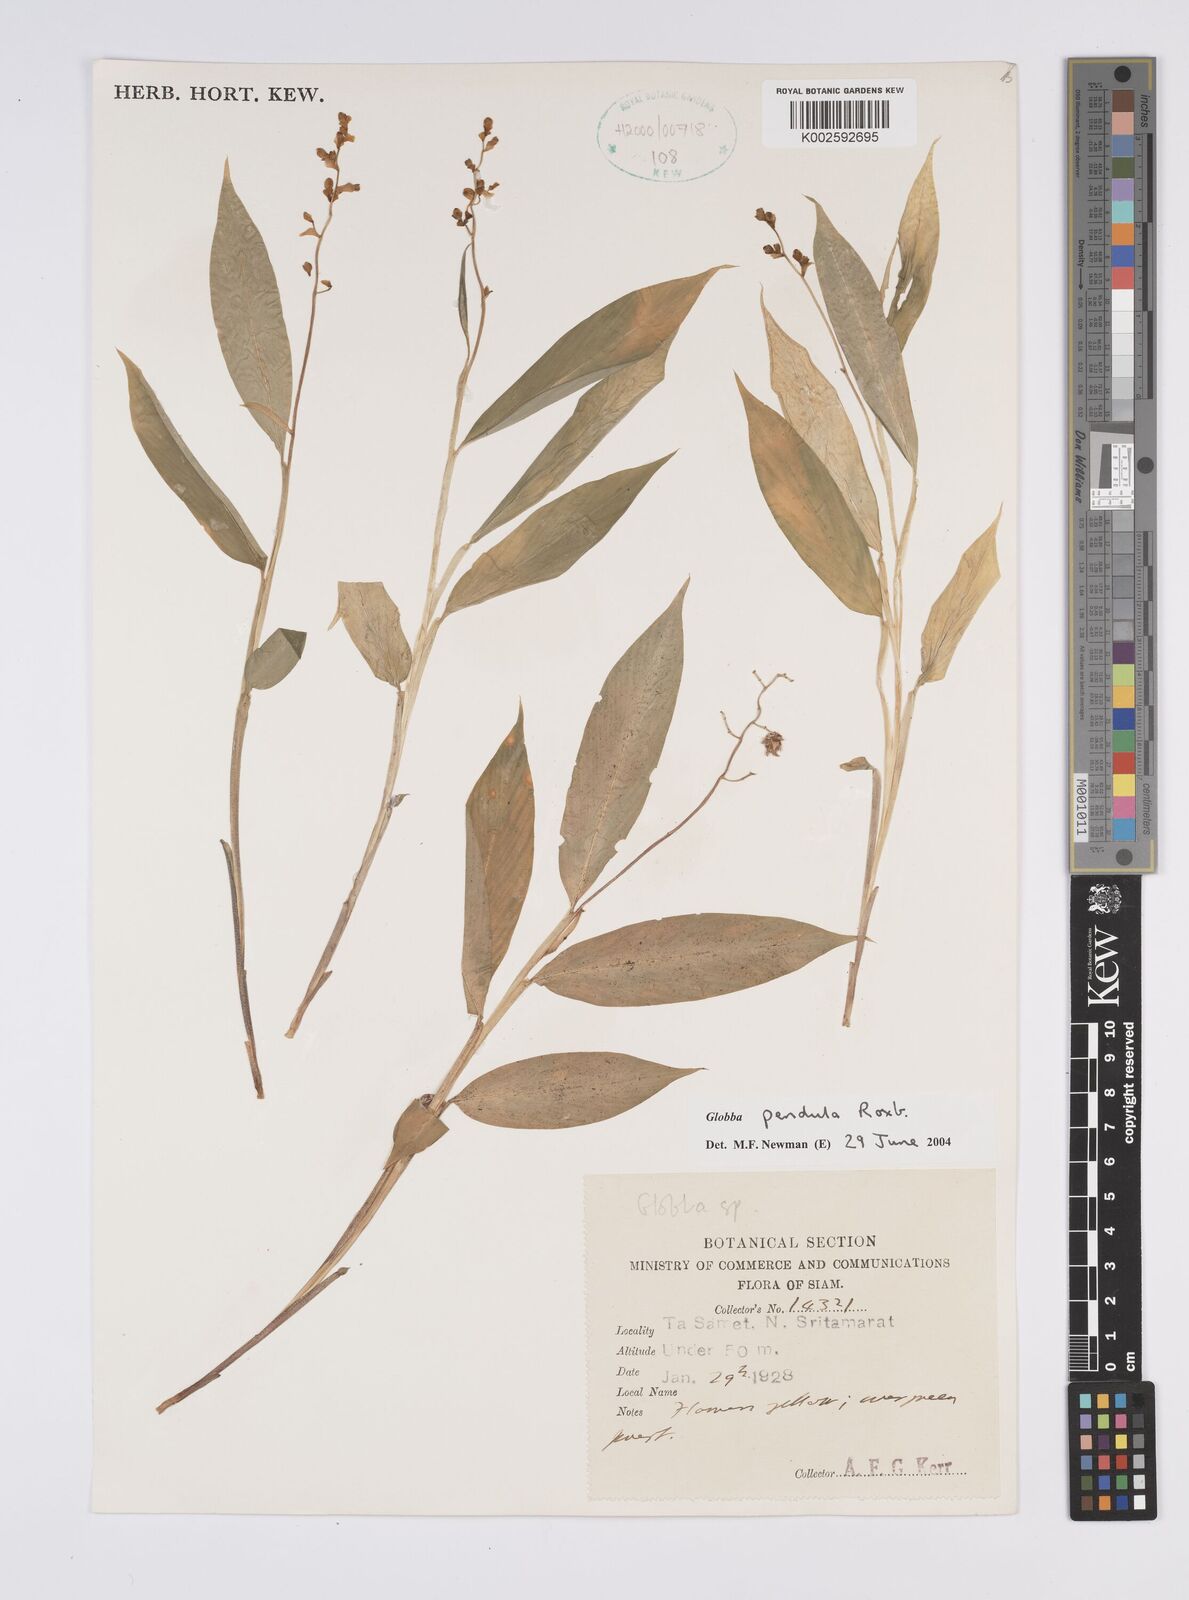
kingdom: Plantae
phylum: Tracheophyta
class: Liliopsida
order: Zingiberales
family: Zingiberaceae
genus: Globba
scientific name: Globba pendula
